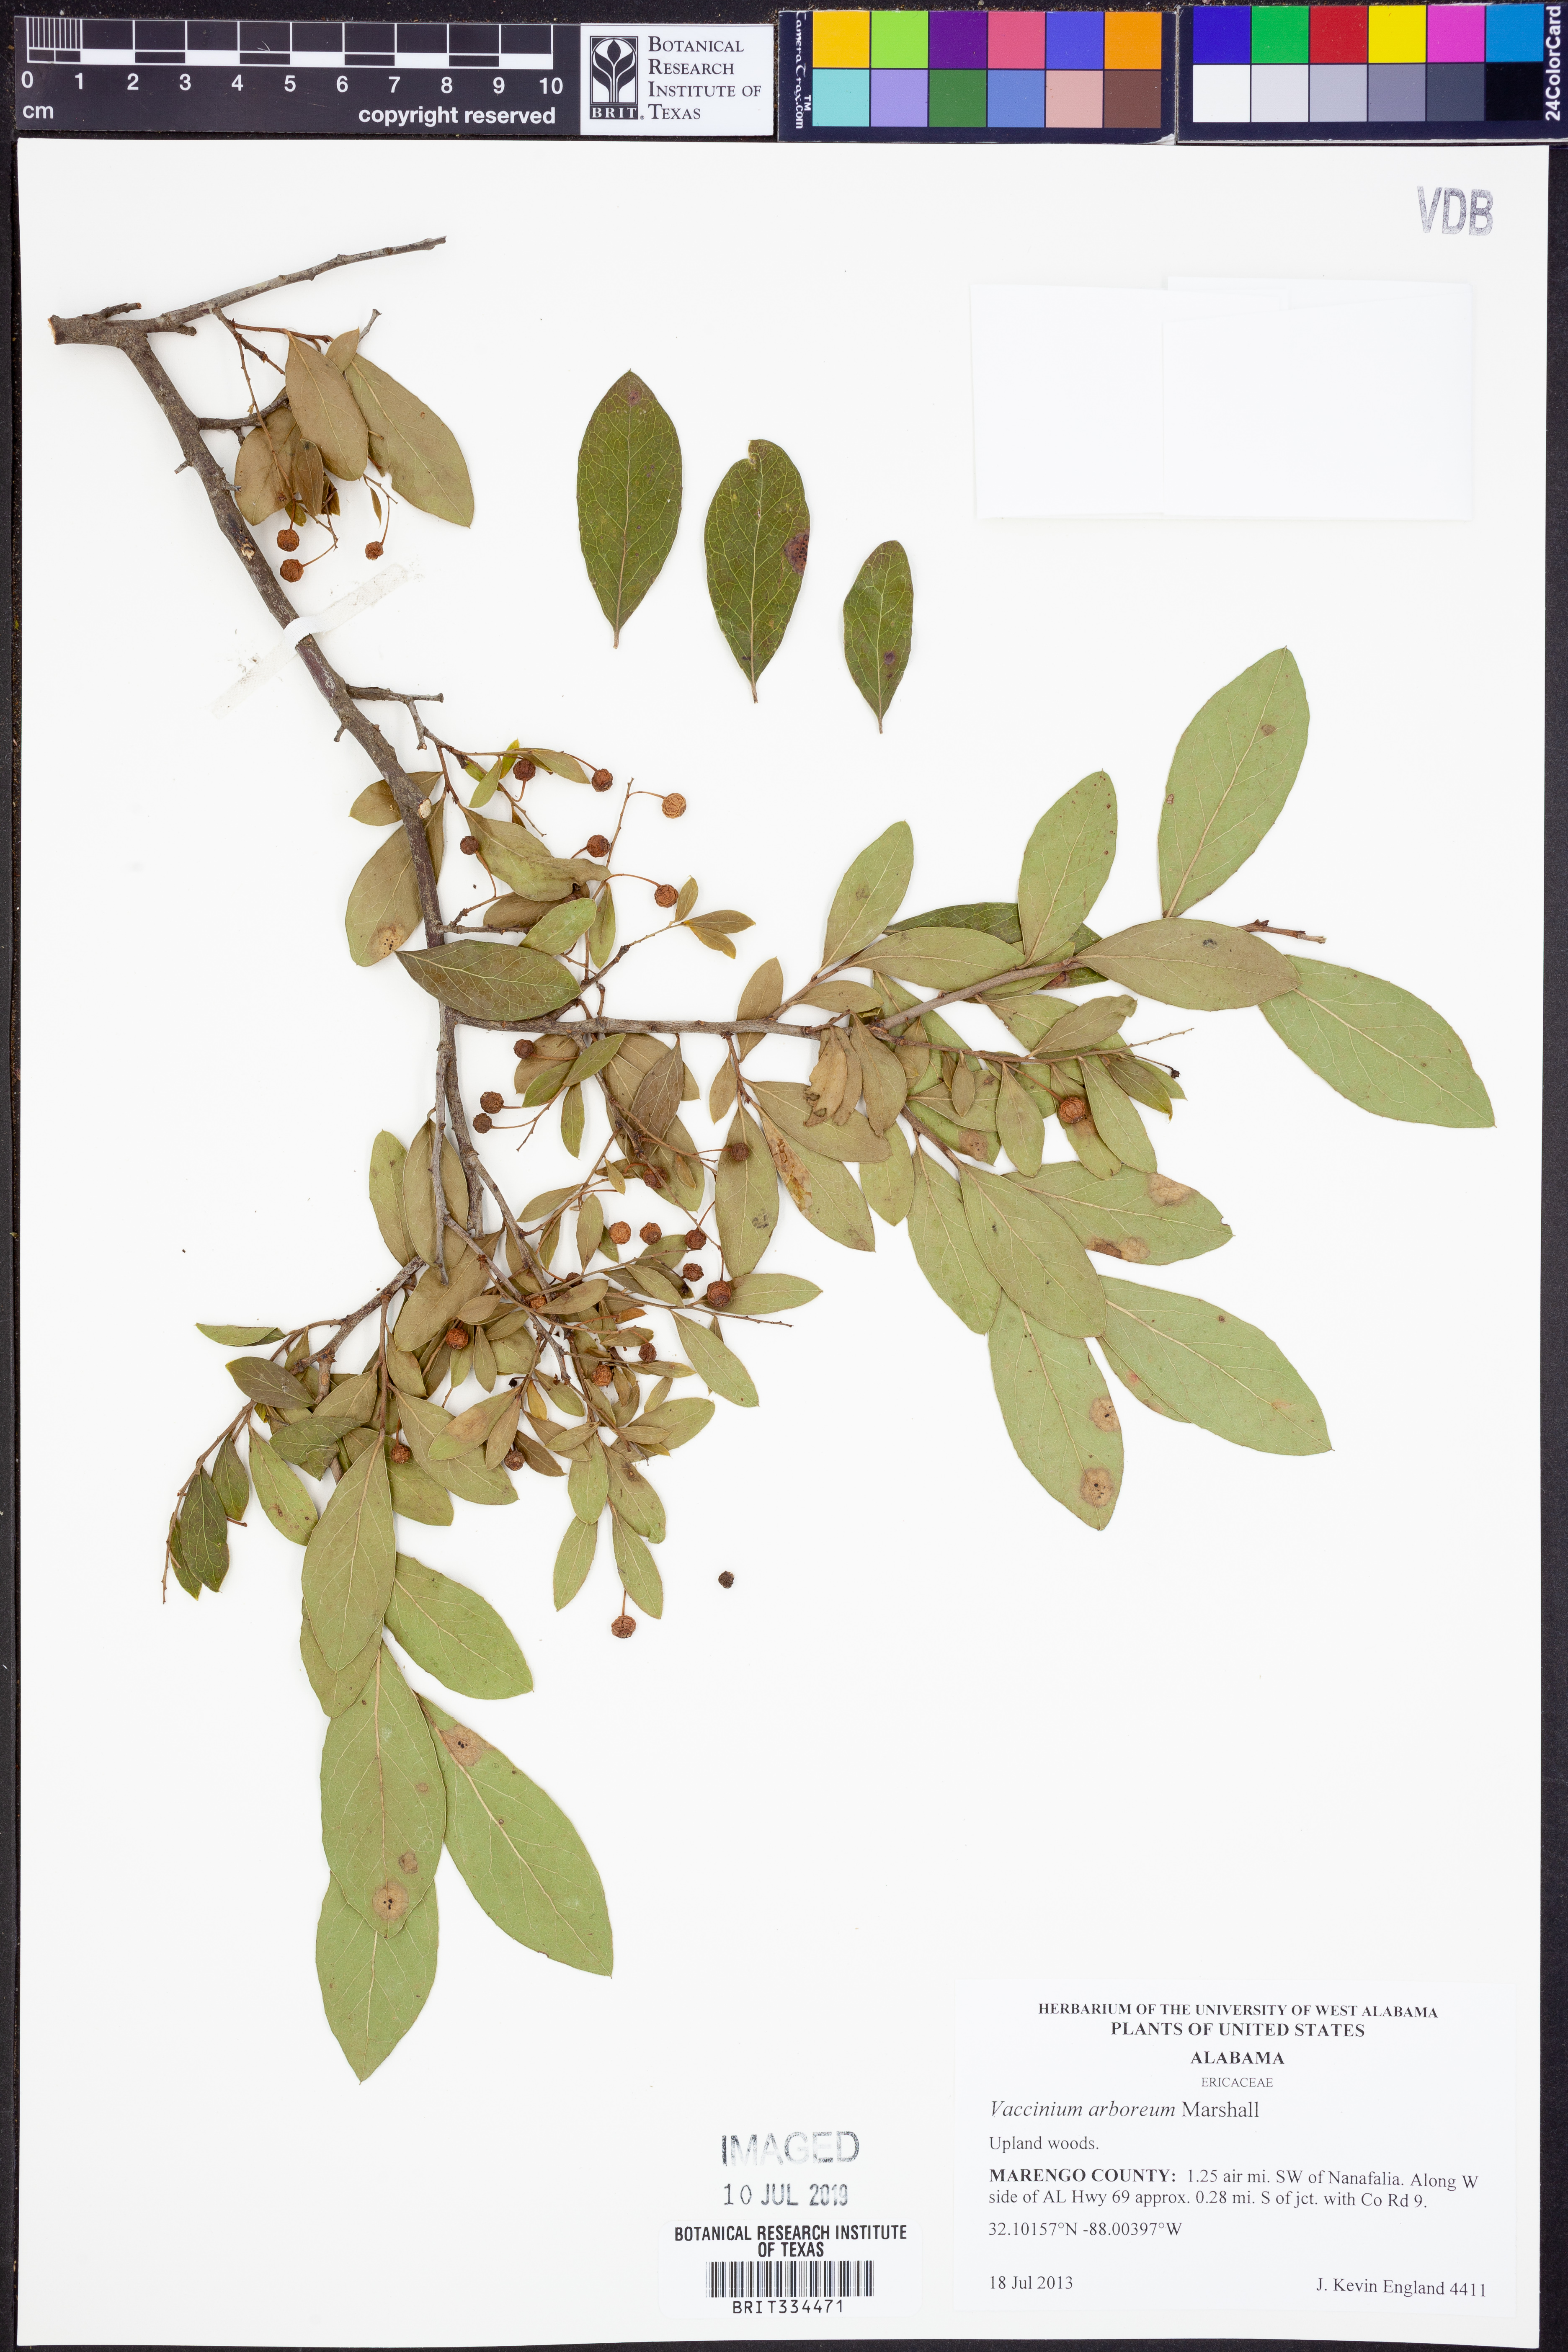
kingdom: Plantae
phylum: Tracheophyta
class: Magnoliopsida
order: Ericales
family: Ericaceae
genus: Vaccinium
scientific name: Vaccinium arboreum
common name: Farkleberry
